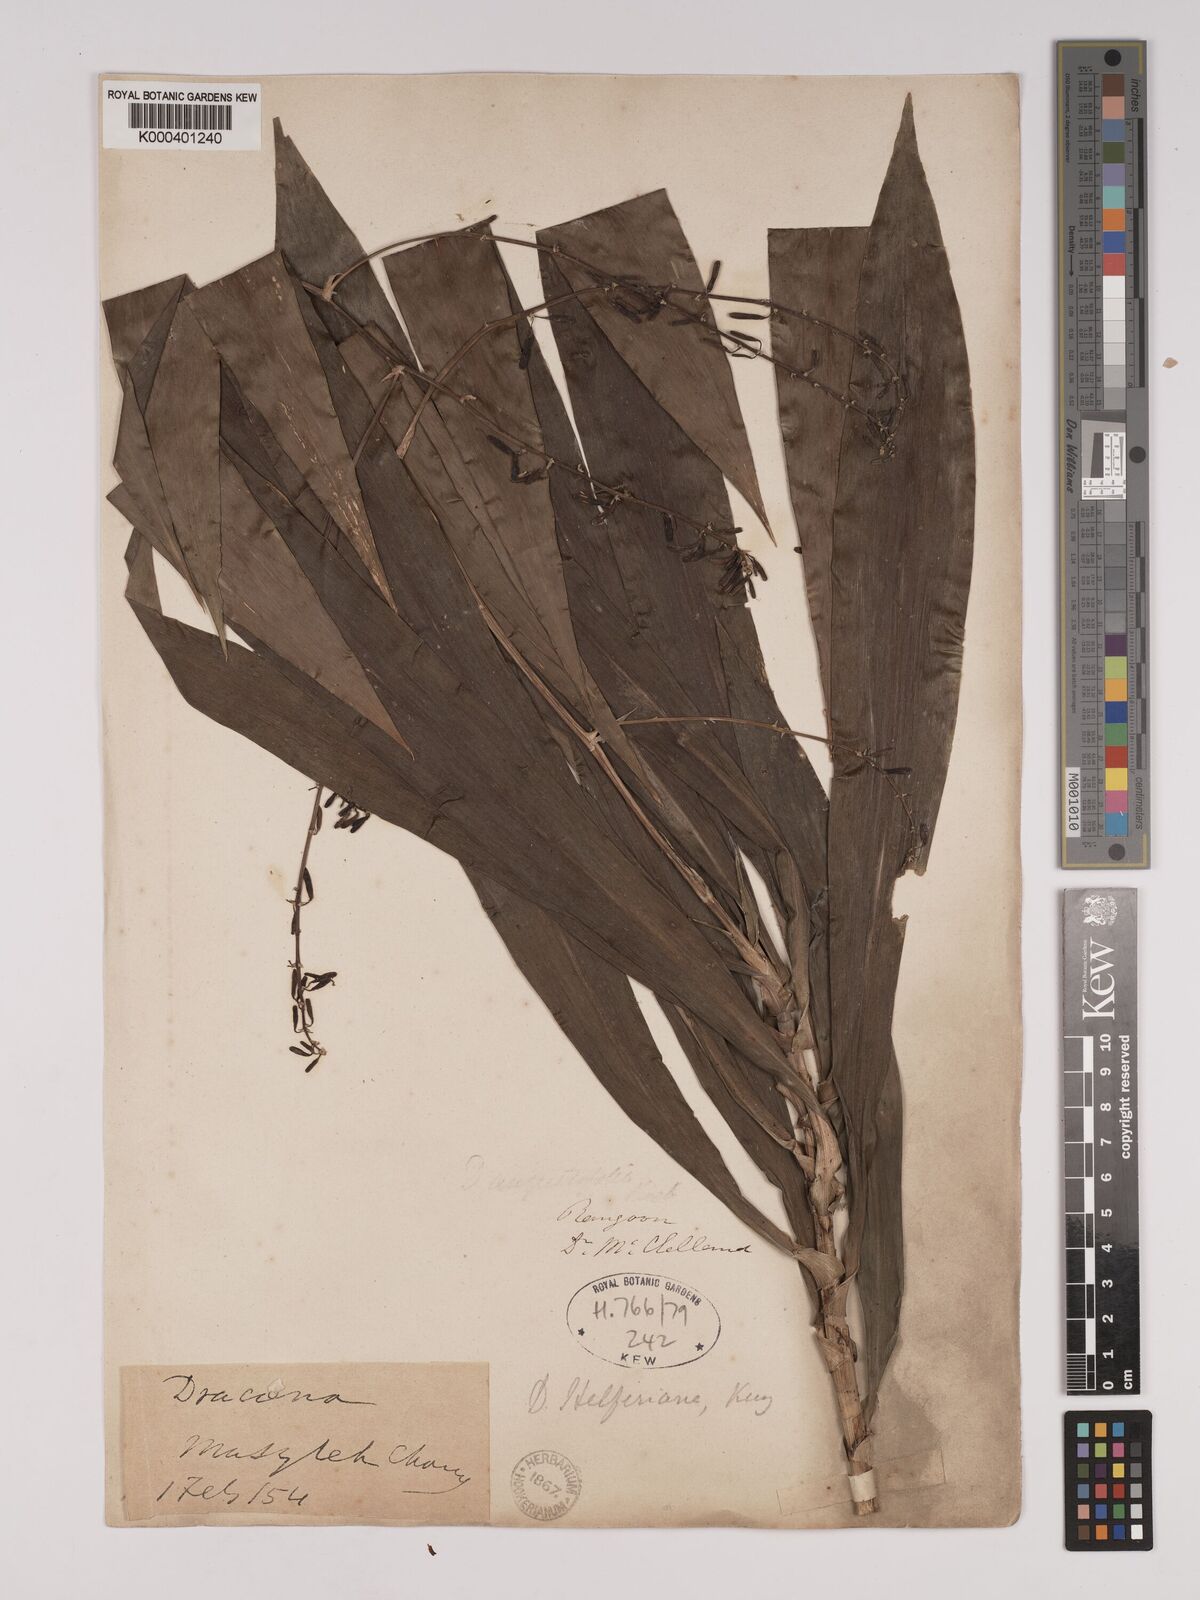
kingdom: Plantae
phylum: Tracheophyta
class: Liliopsida
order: Asparagales
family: Asparagaceae
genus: Dracaena
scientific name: Dracaena griffithii
